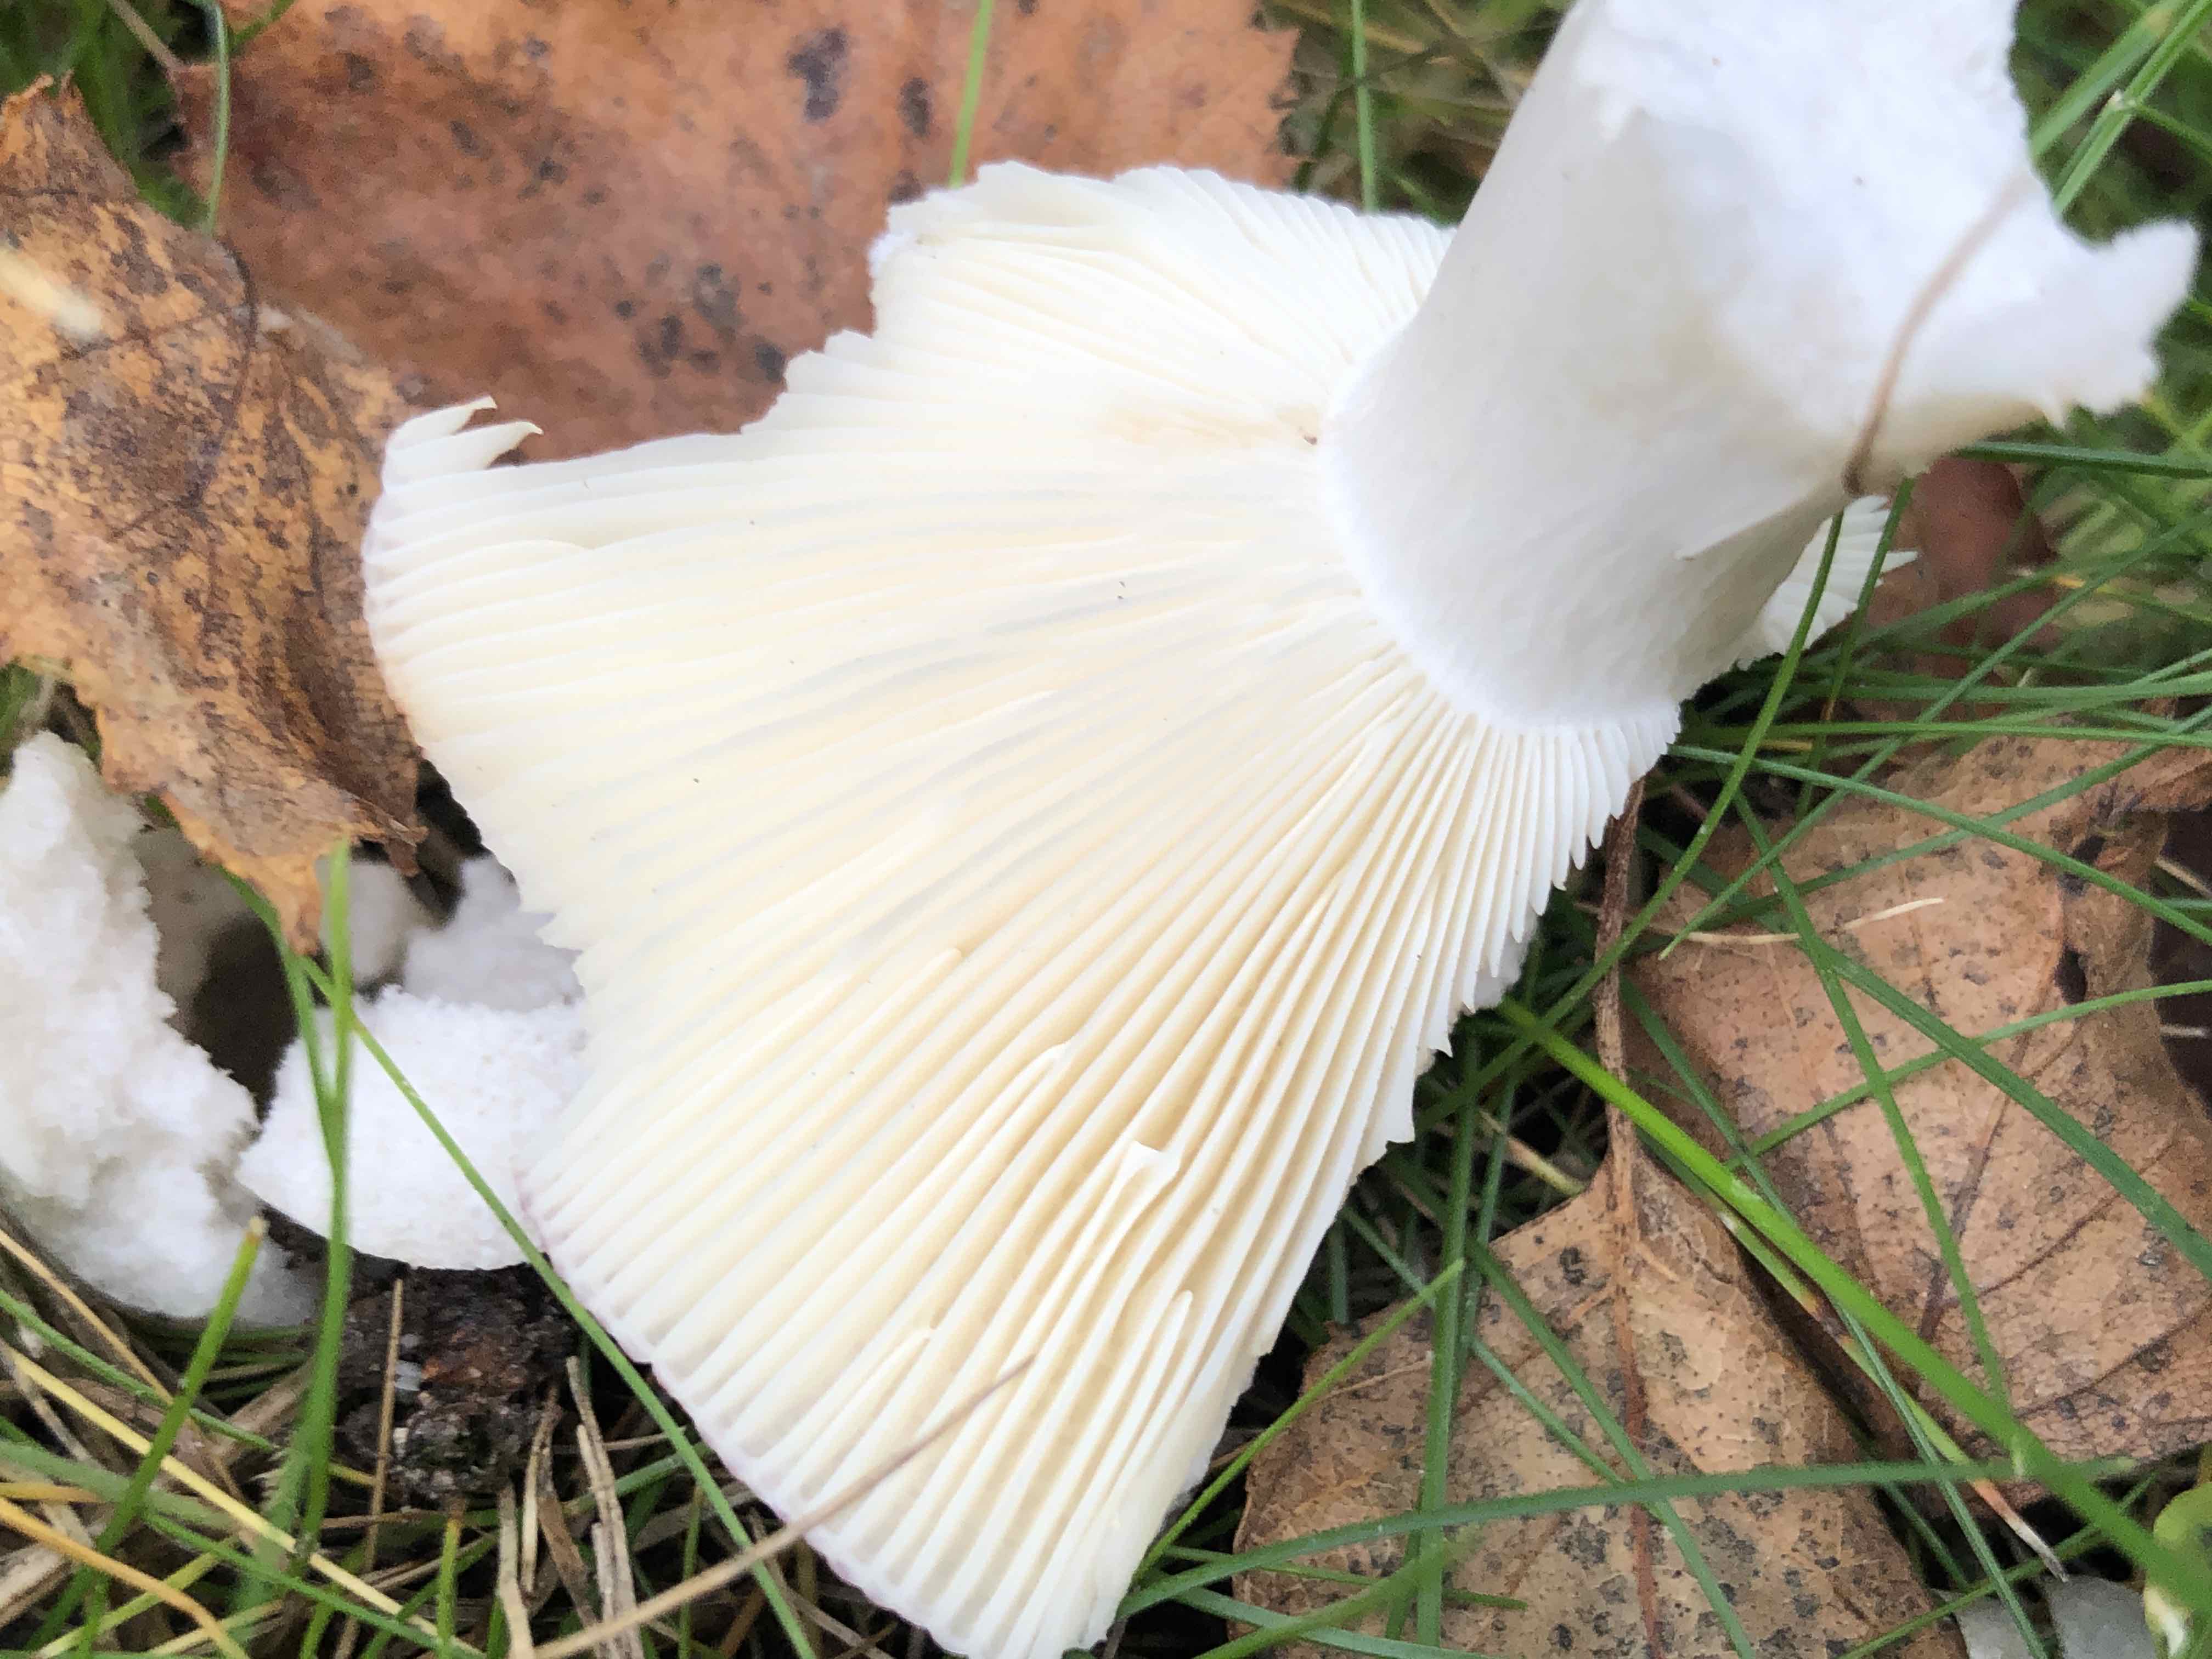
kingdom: Fungi
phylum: Basidiomycota
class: Agaricomycetes
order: Russulales
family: Russulaceae
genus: Russula
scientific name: Russula depallens
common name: falmende skørhat
